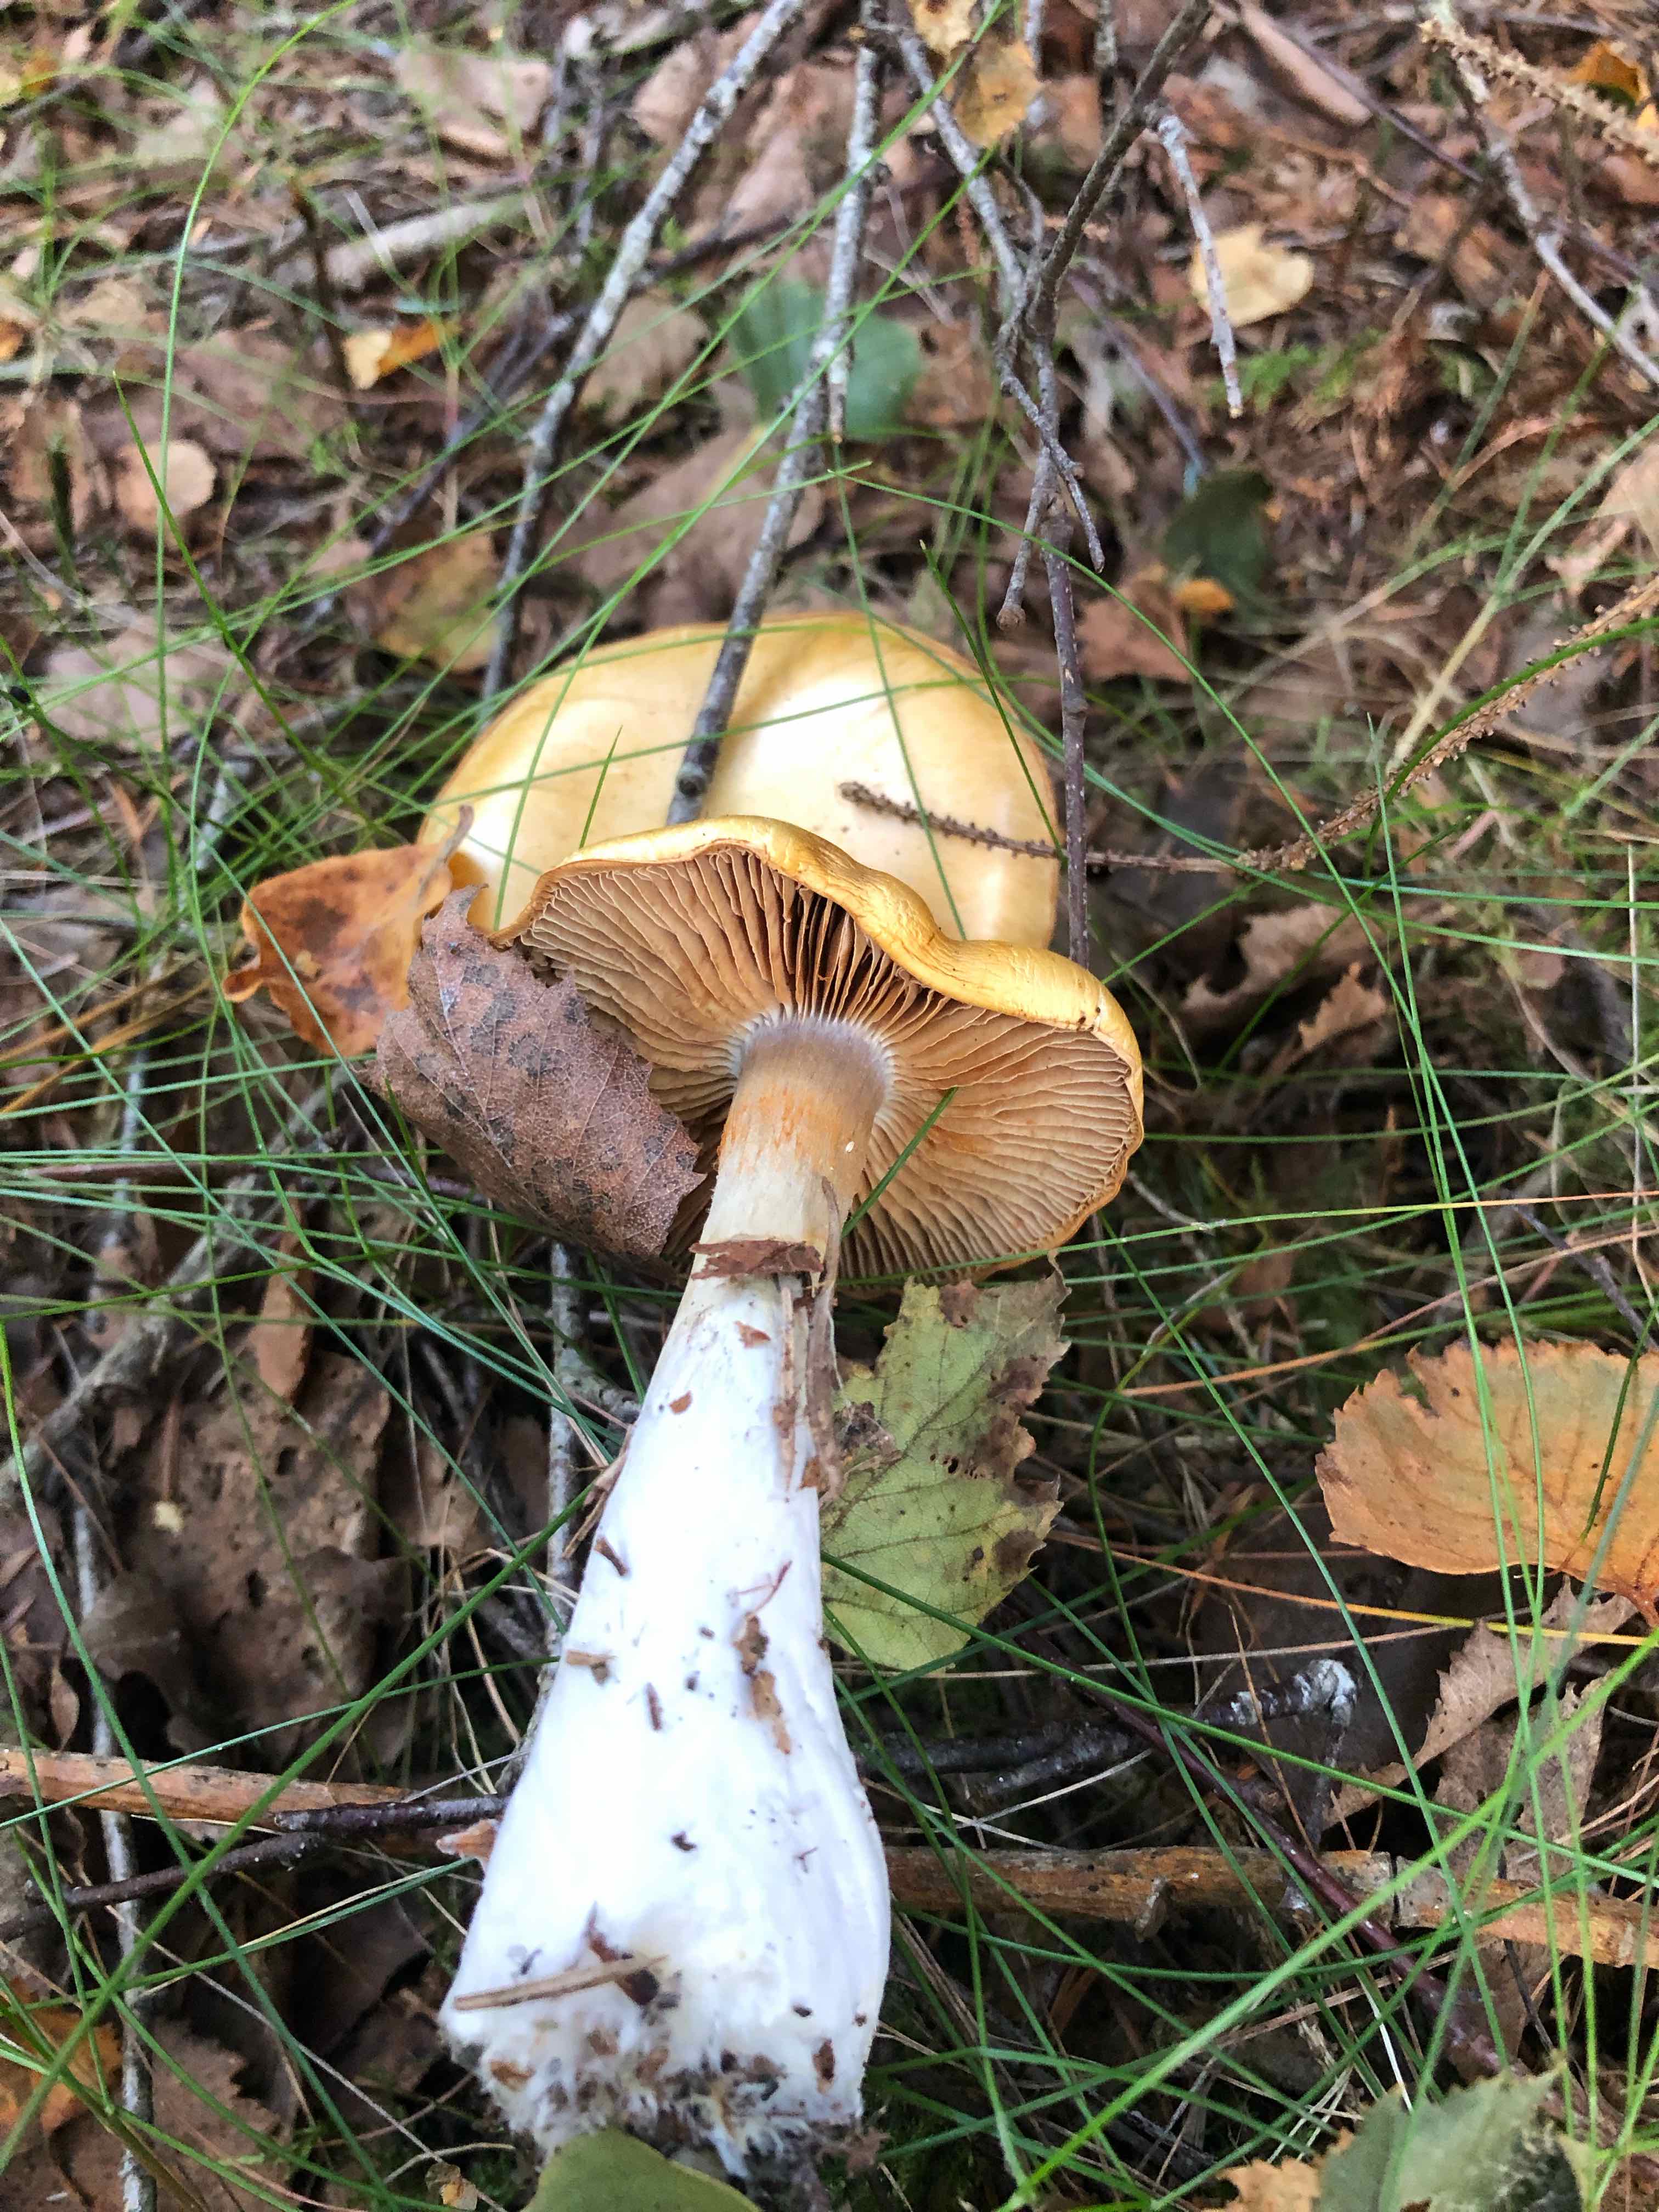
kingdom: Fungi
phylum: Basidiomycota
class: Agaricomycetes
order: Agaricales
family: Cortinariaceae
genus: Cortinarius
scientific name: Cortinarius
